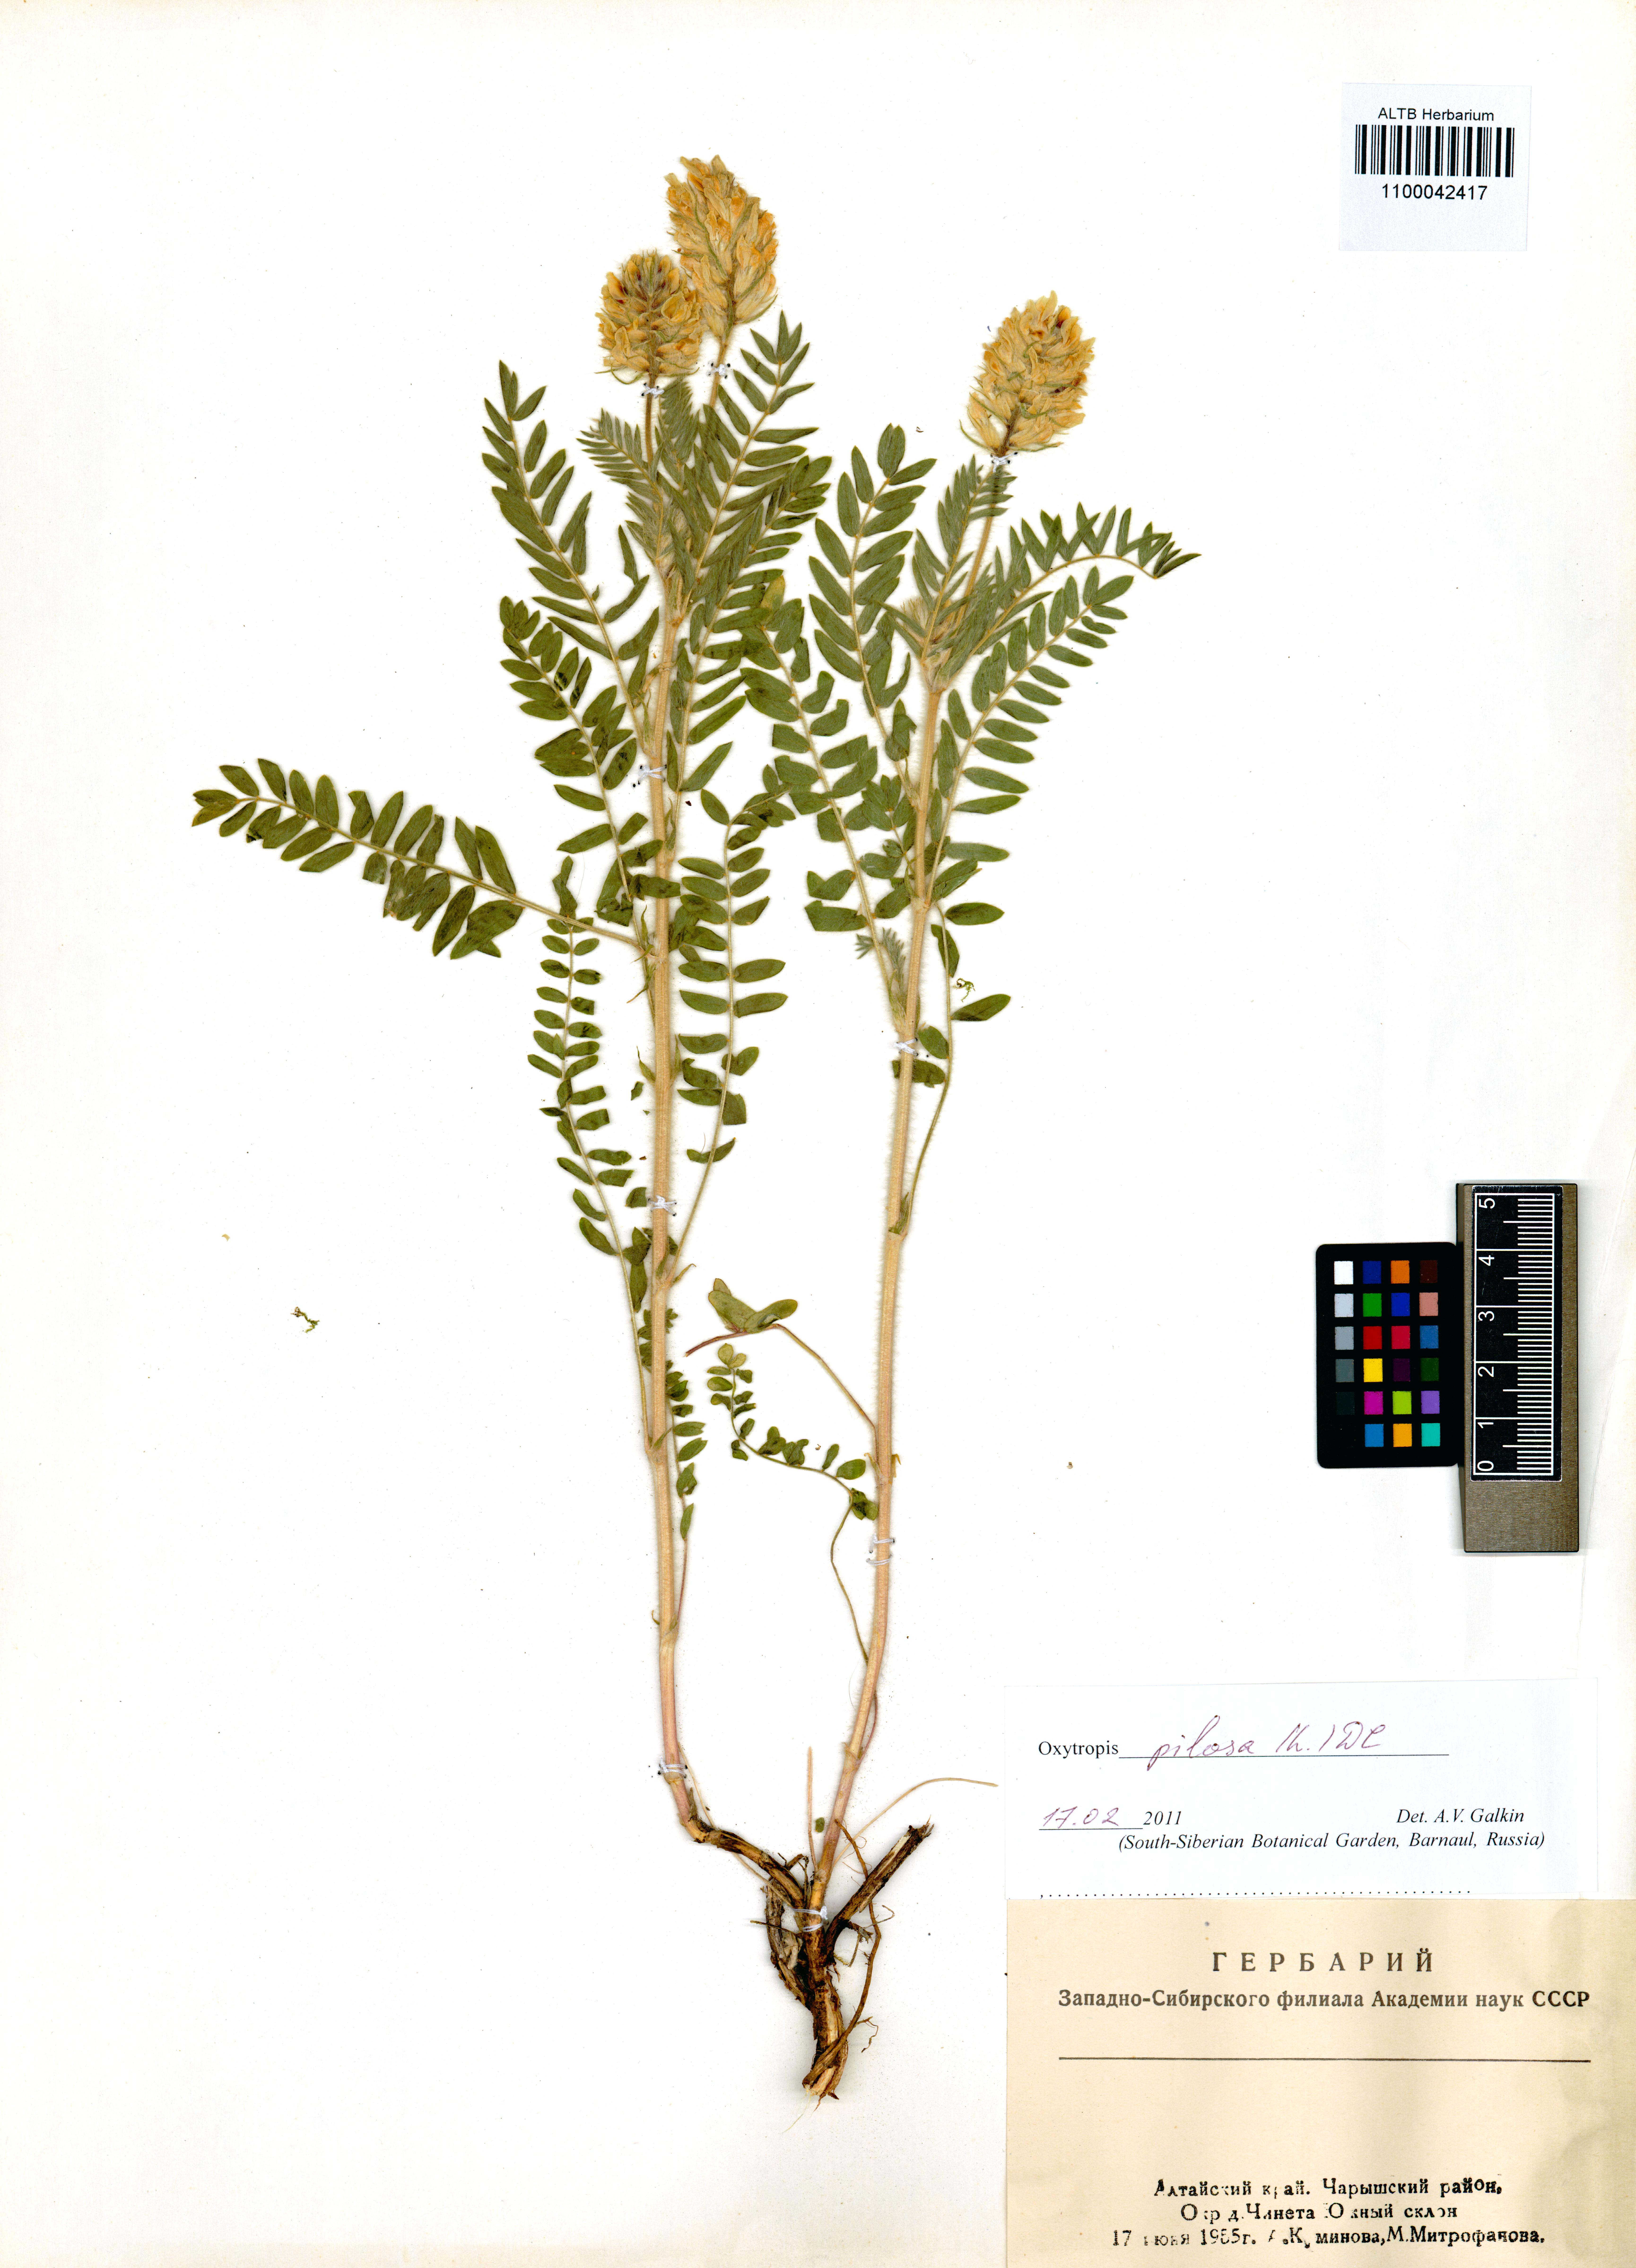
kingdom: Plantae
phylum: Tracheophyta
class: Magnoliopsida
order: Fabales
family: Fabaceae
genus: Oxytropis
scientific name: Oxytropis pilosa
